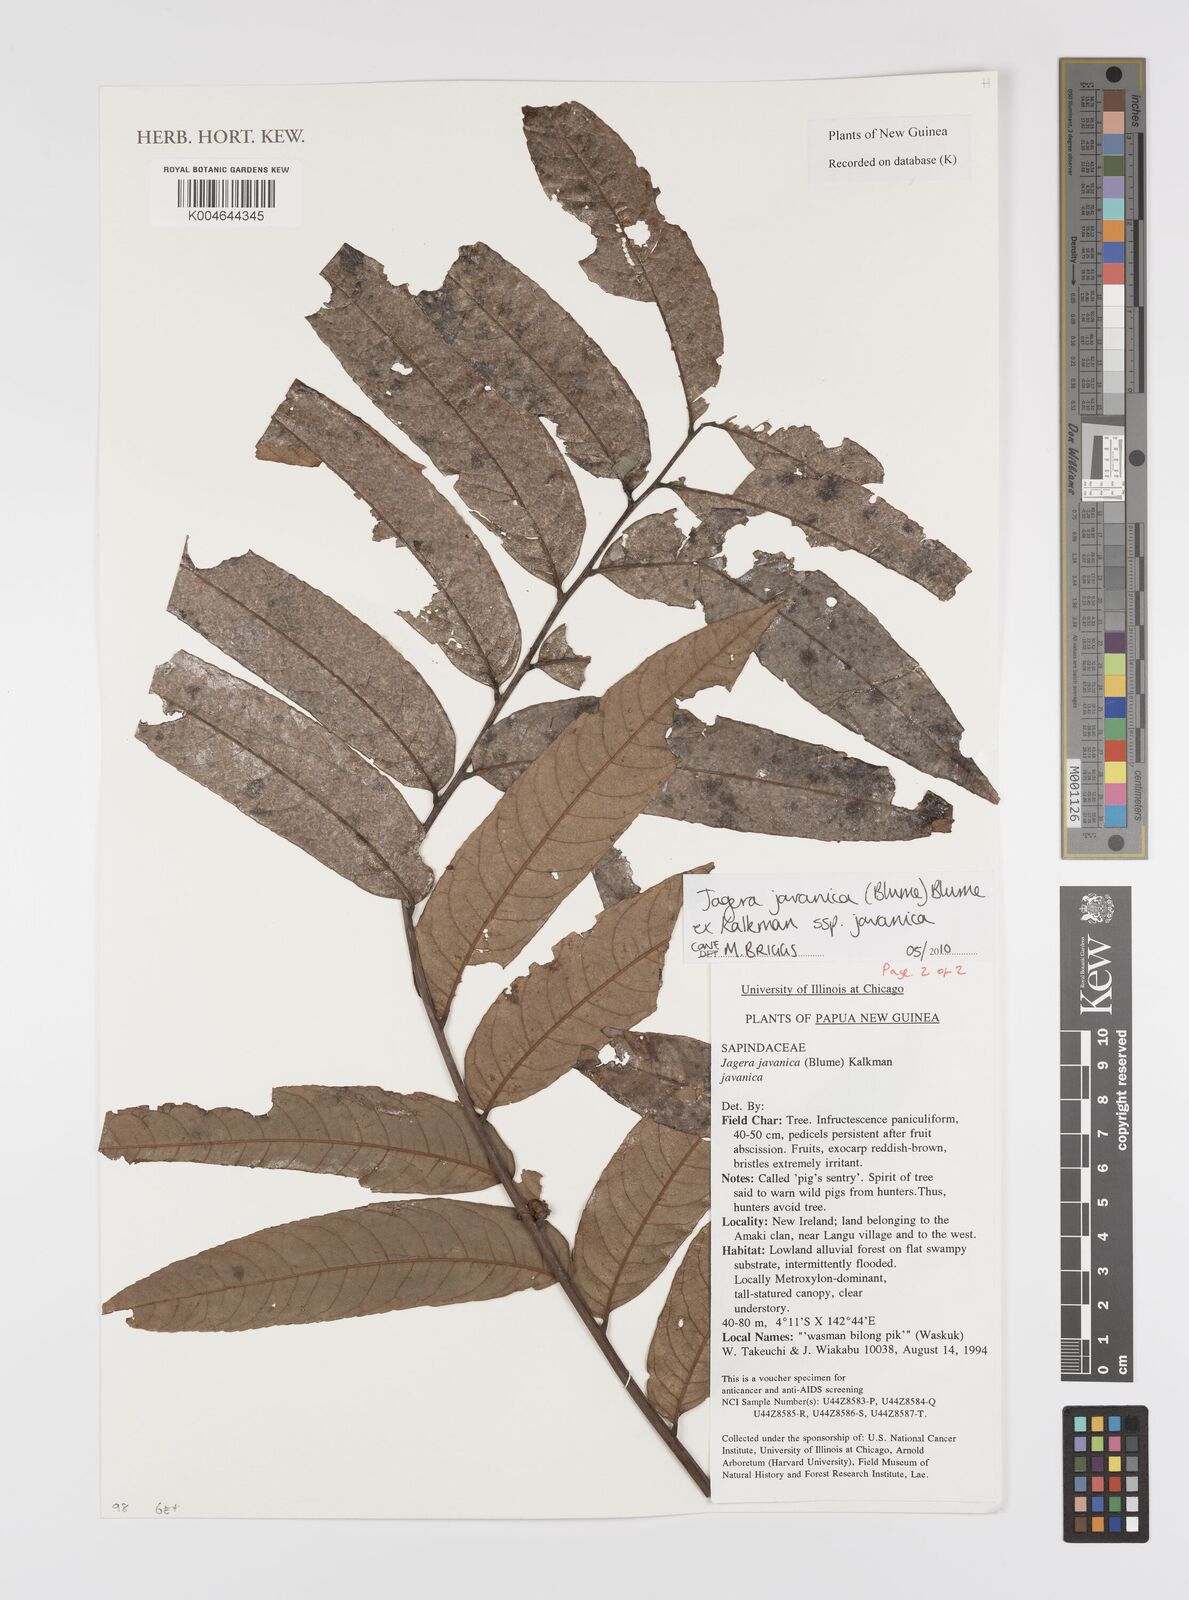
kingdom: Plantae
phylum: Tracheophyta
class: Magnoliopsida
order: Sapindales
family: Sapindaceae
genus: Jagera
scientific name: Jagera javanica
